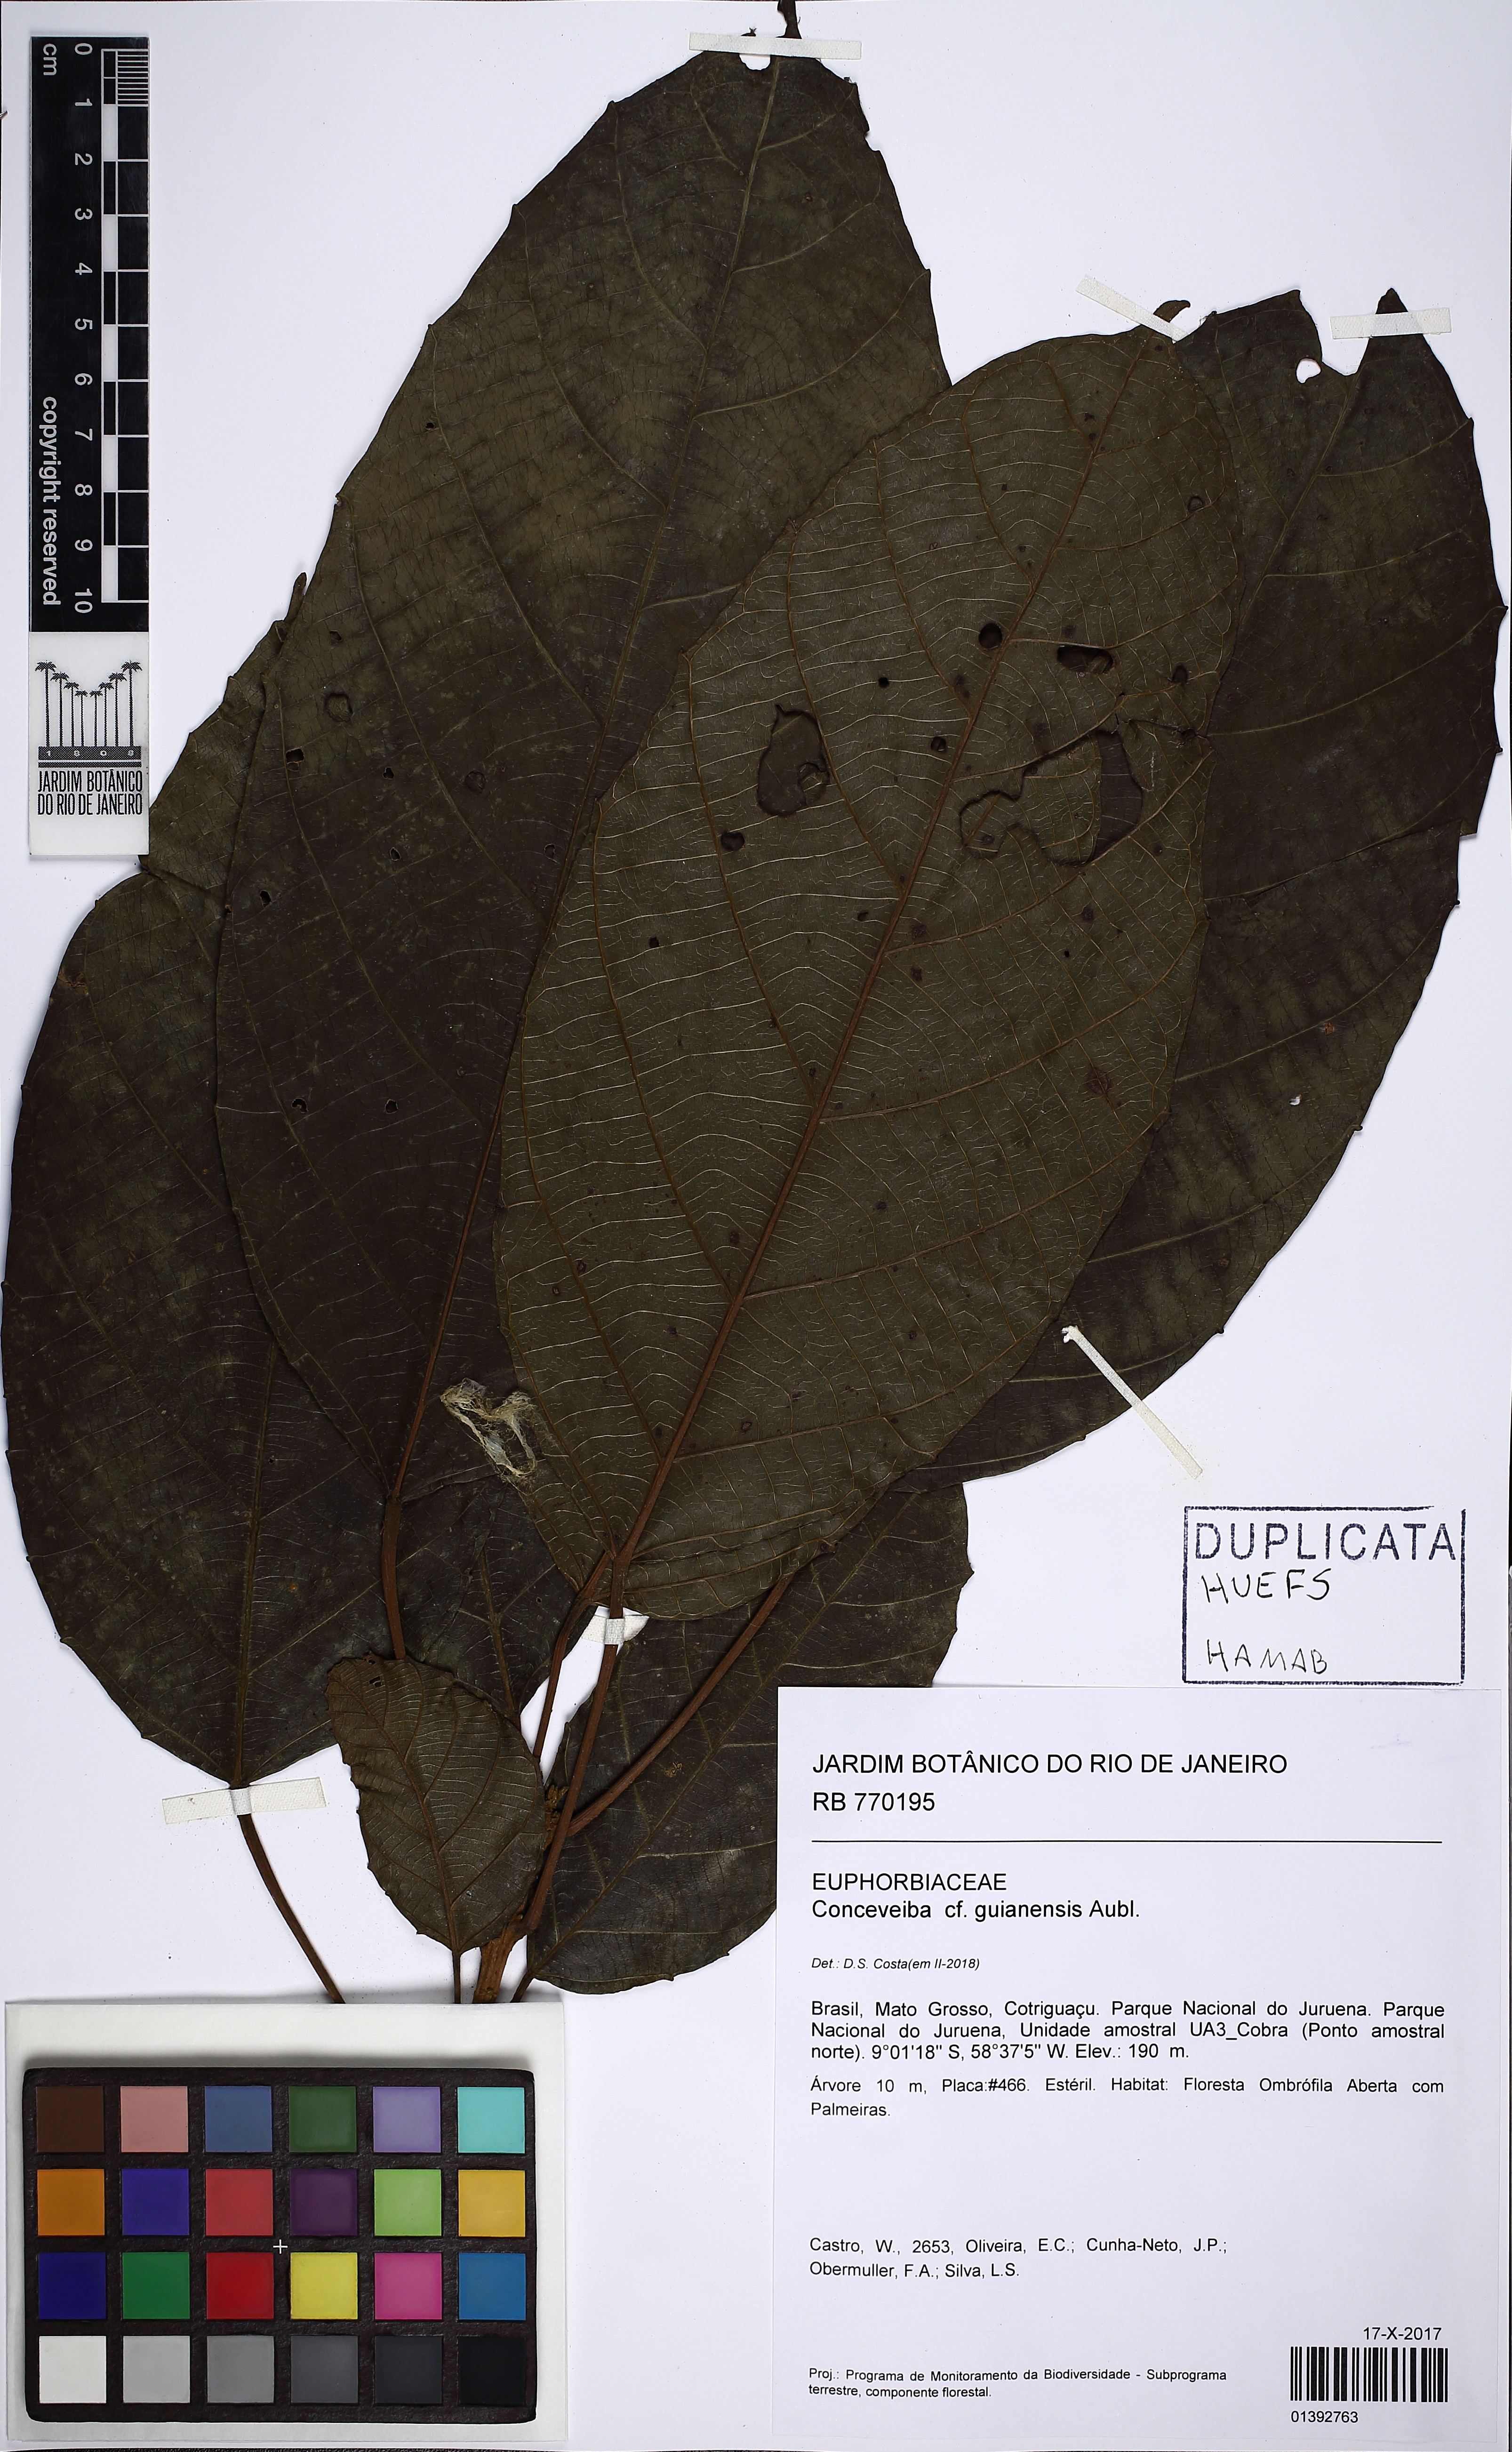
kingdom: Plantae
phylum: Tracheophyta
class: Magnoliopsida
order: Malpighiales
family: Euphorbiaceae
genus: Conceveiba
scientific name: Conceveiba guianensis
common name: Poatoru
